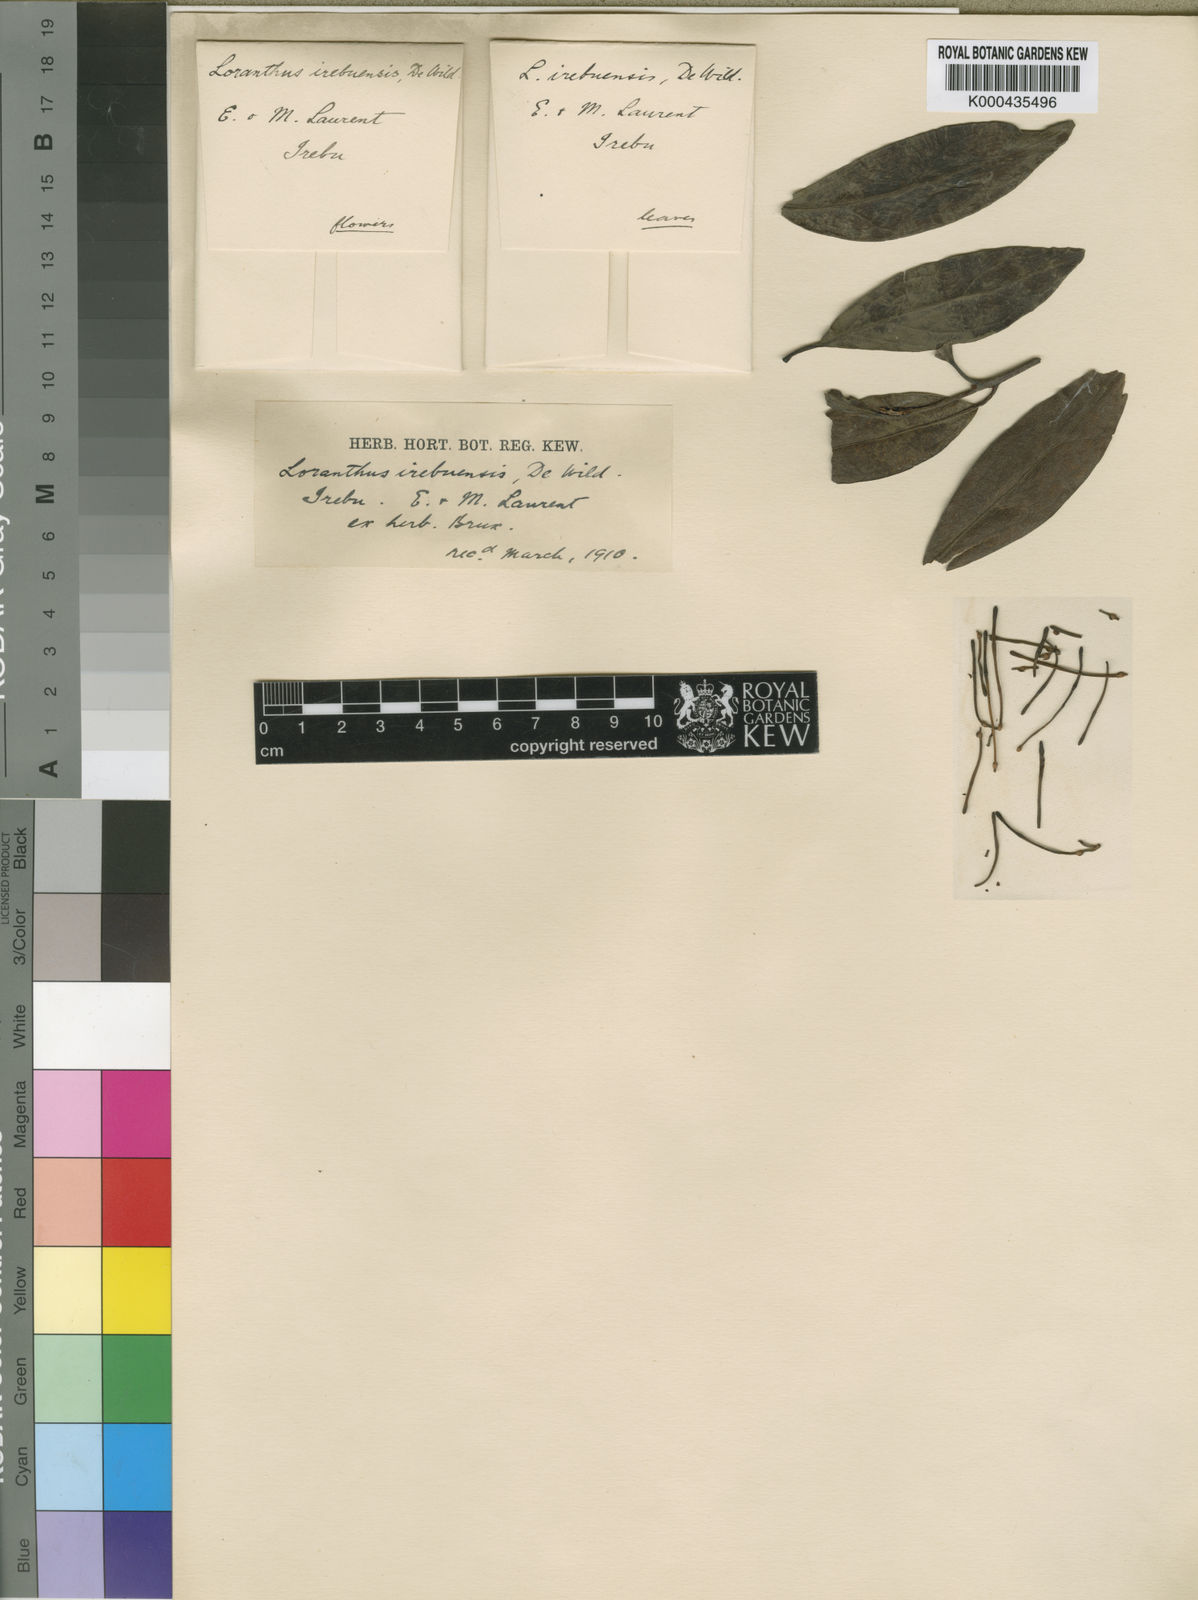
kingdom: Plantae
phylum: Tracheophyta
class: Magnoliopsida
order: Santalales
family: Loranthaceae
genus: Phragmanthera
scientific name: Phragmanthera batangae
